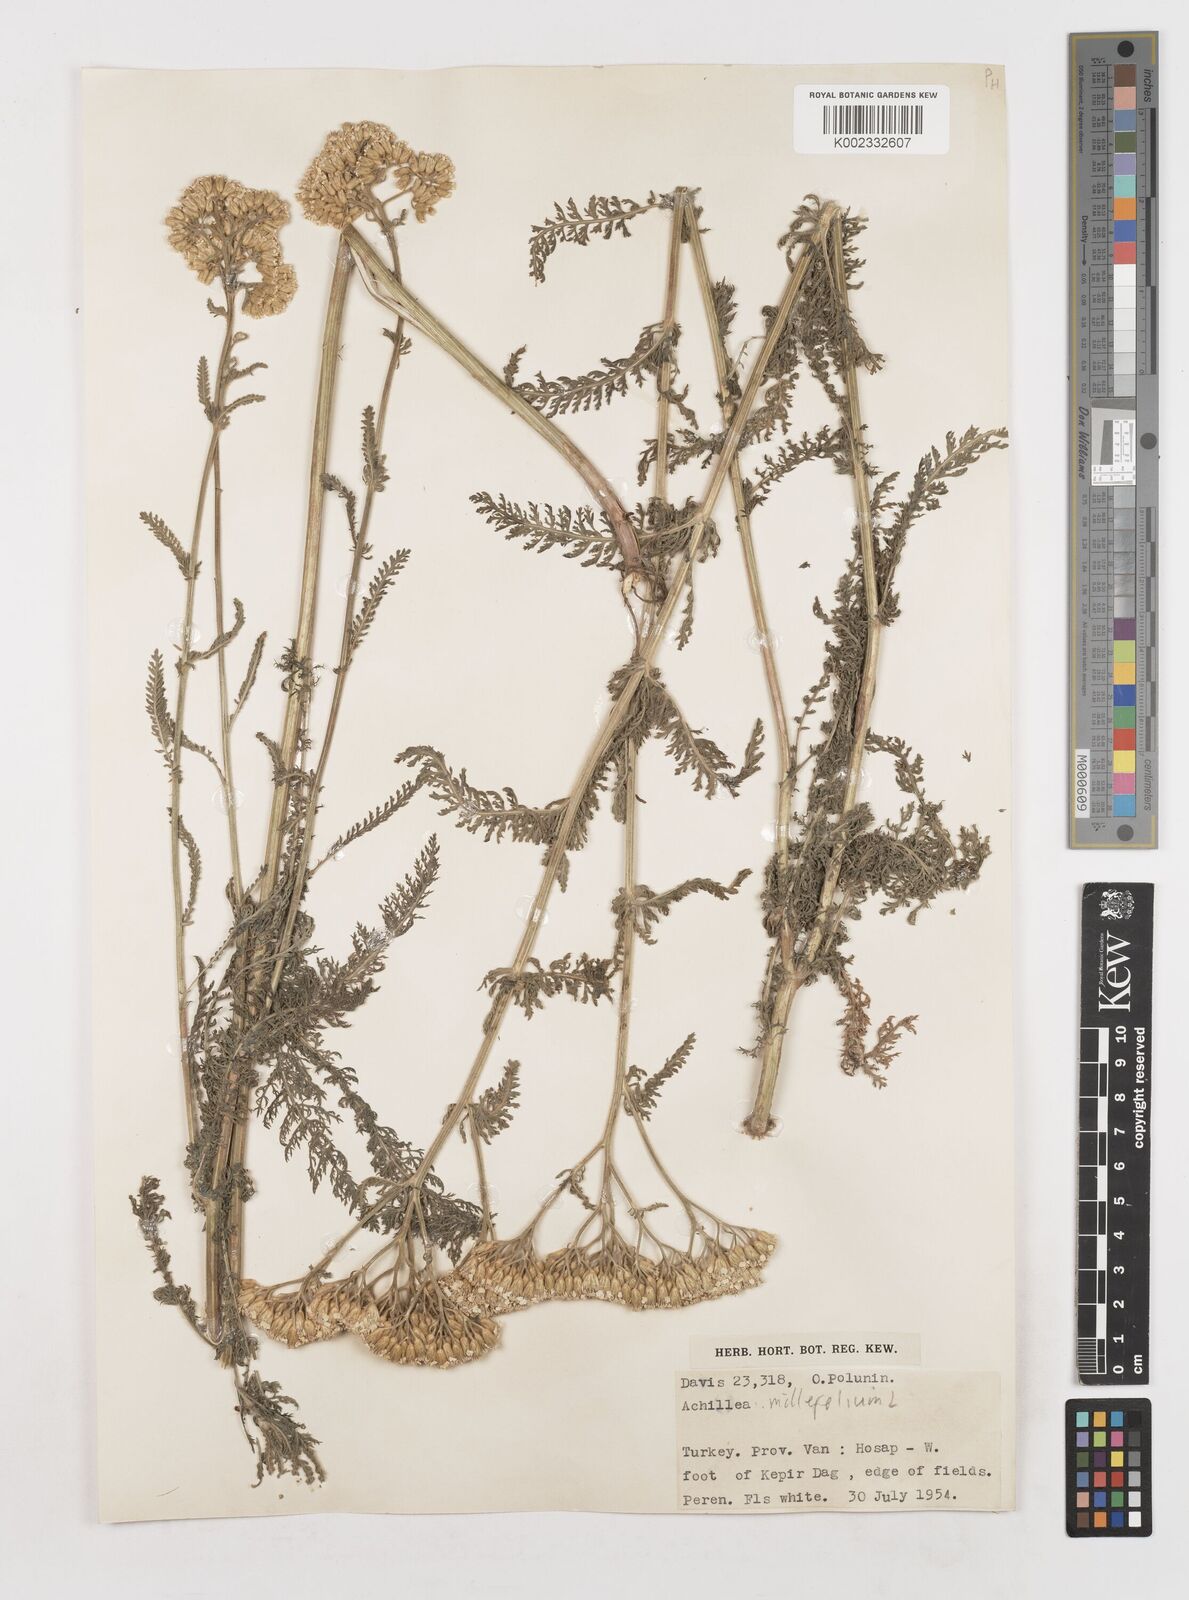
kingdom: Plantae
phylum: Tracheophyta
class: Magnoliopsida
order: Asterales
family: Asteraceae
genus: Achillea
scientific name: Achillea millefolium
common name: Yarrow
